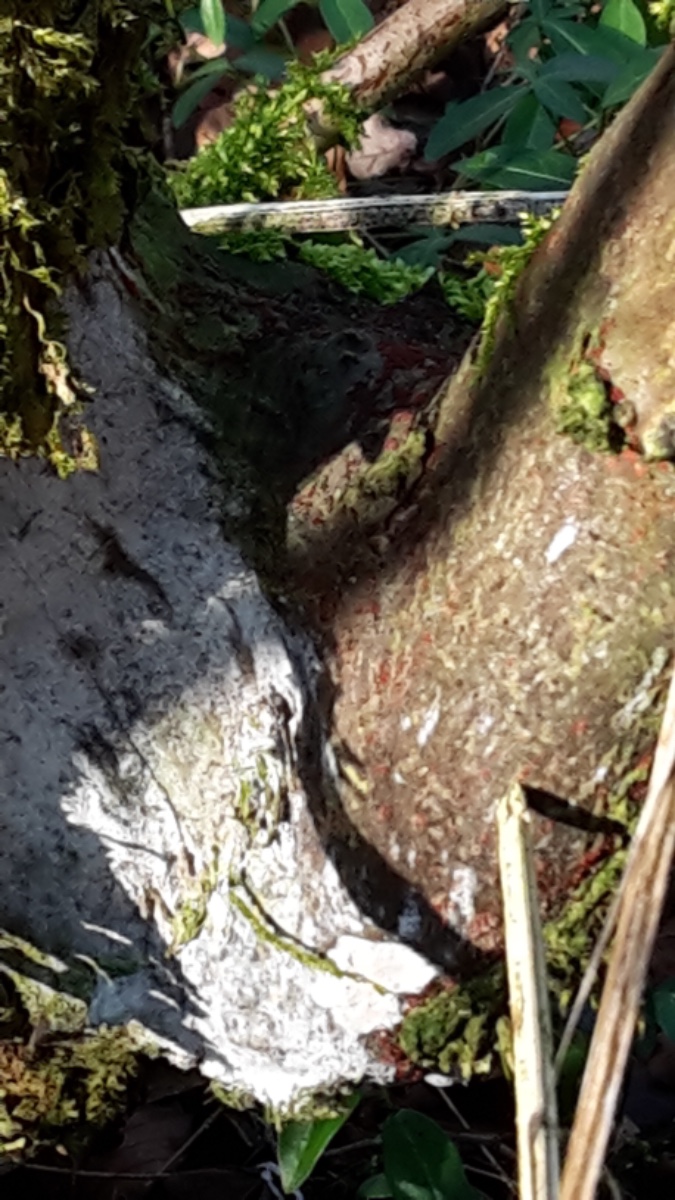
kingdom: Fungi
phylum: Basidiomycota
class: Agaricomycetes
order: Corticiales
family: Corticiaceae
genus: Lyomyces
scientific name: Lyomyces sambuci
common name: almindelig hyldehinde
